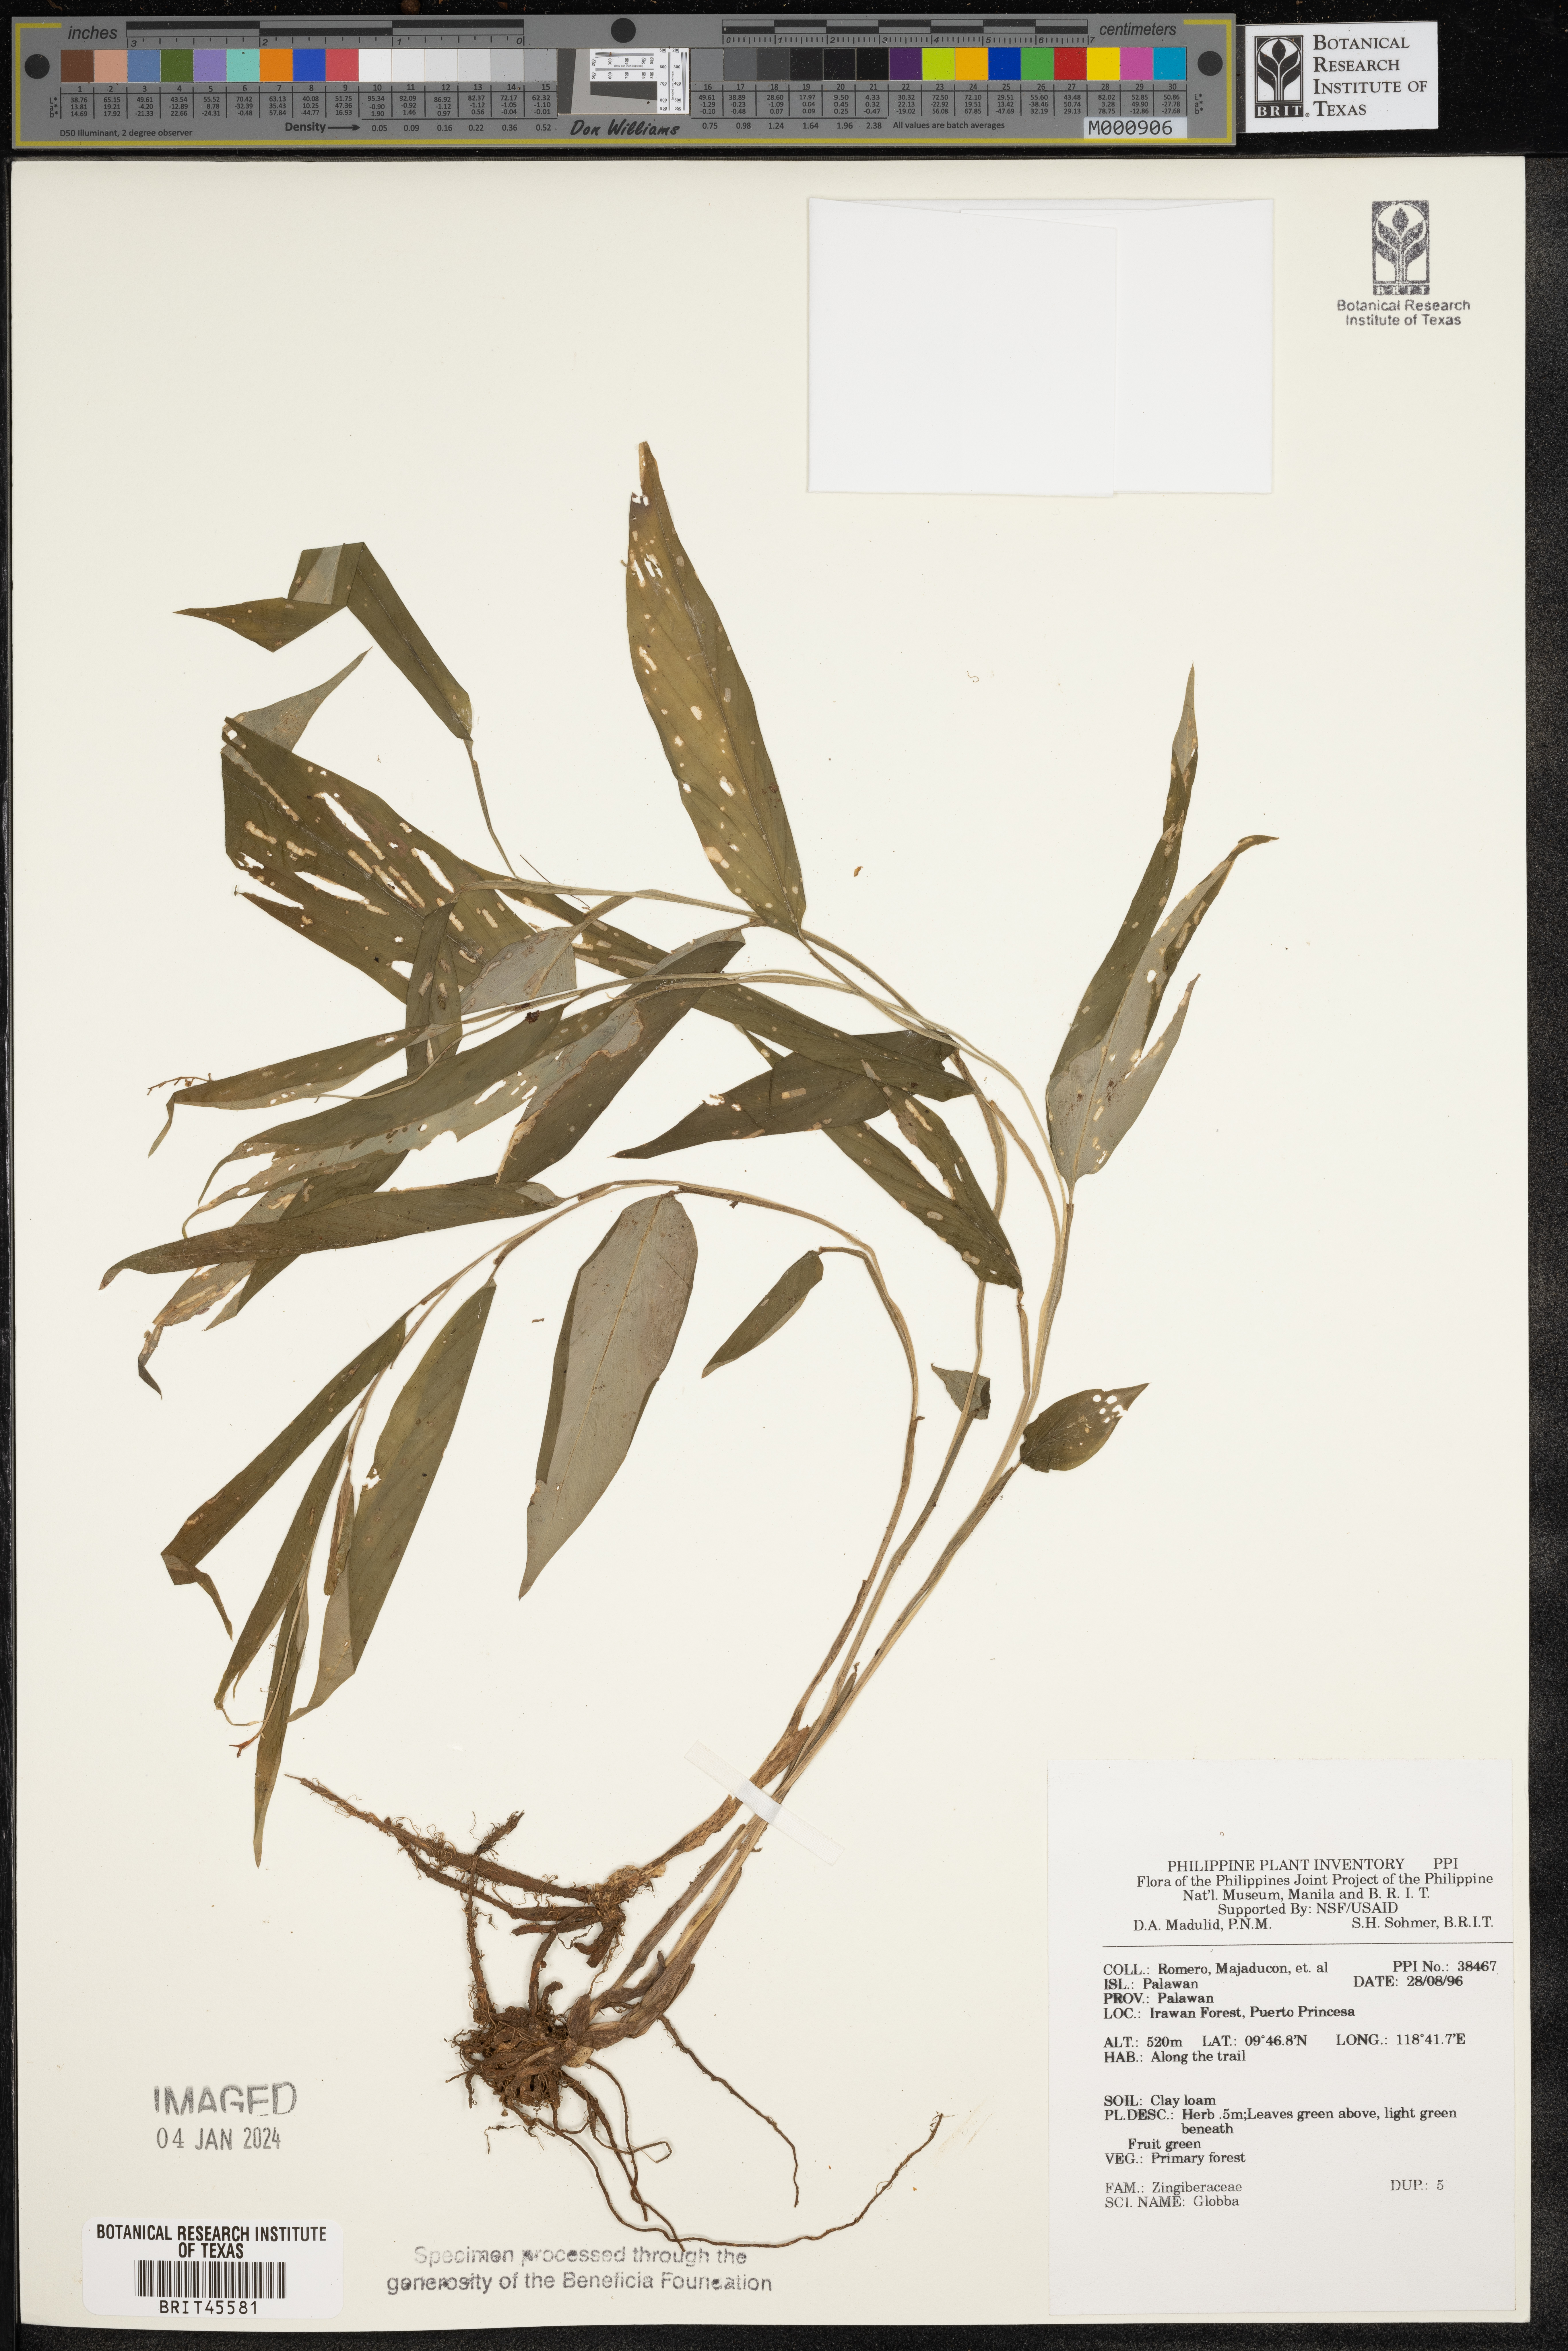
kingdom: Plantae
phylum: Tracheophyta
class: Liliopsida
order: Zingiberales
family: Zingiberaceae
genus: Globba
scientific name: Globba
